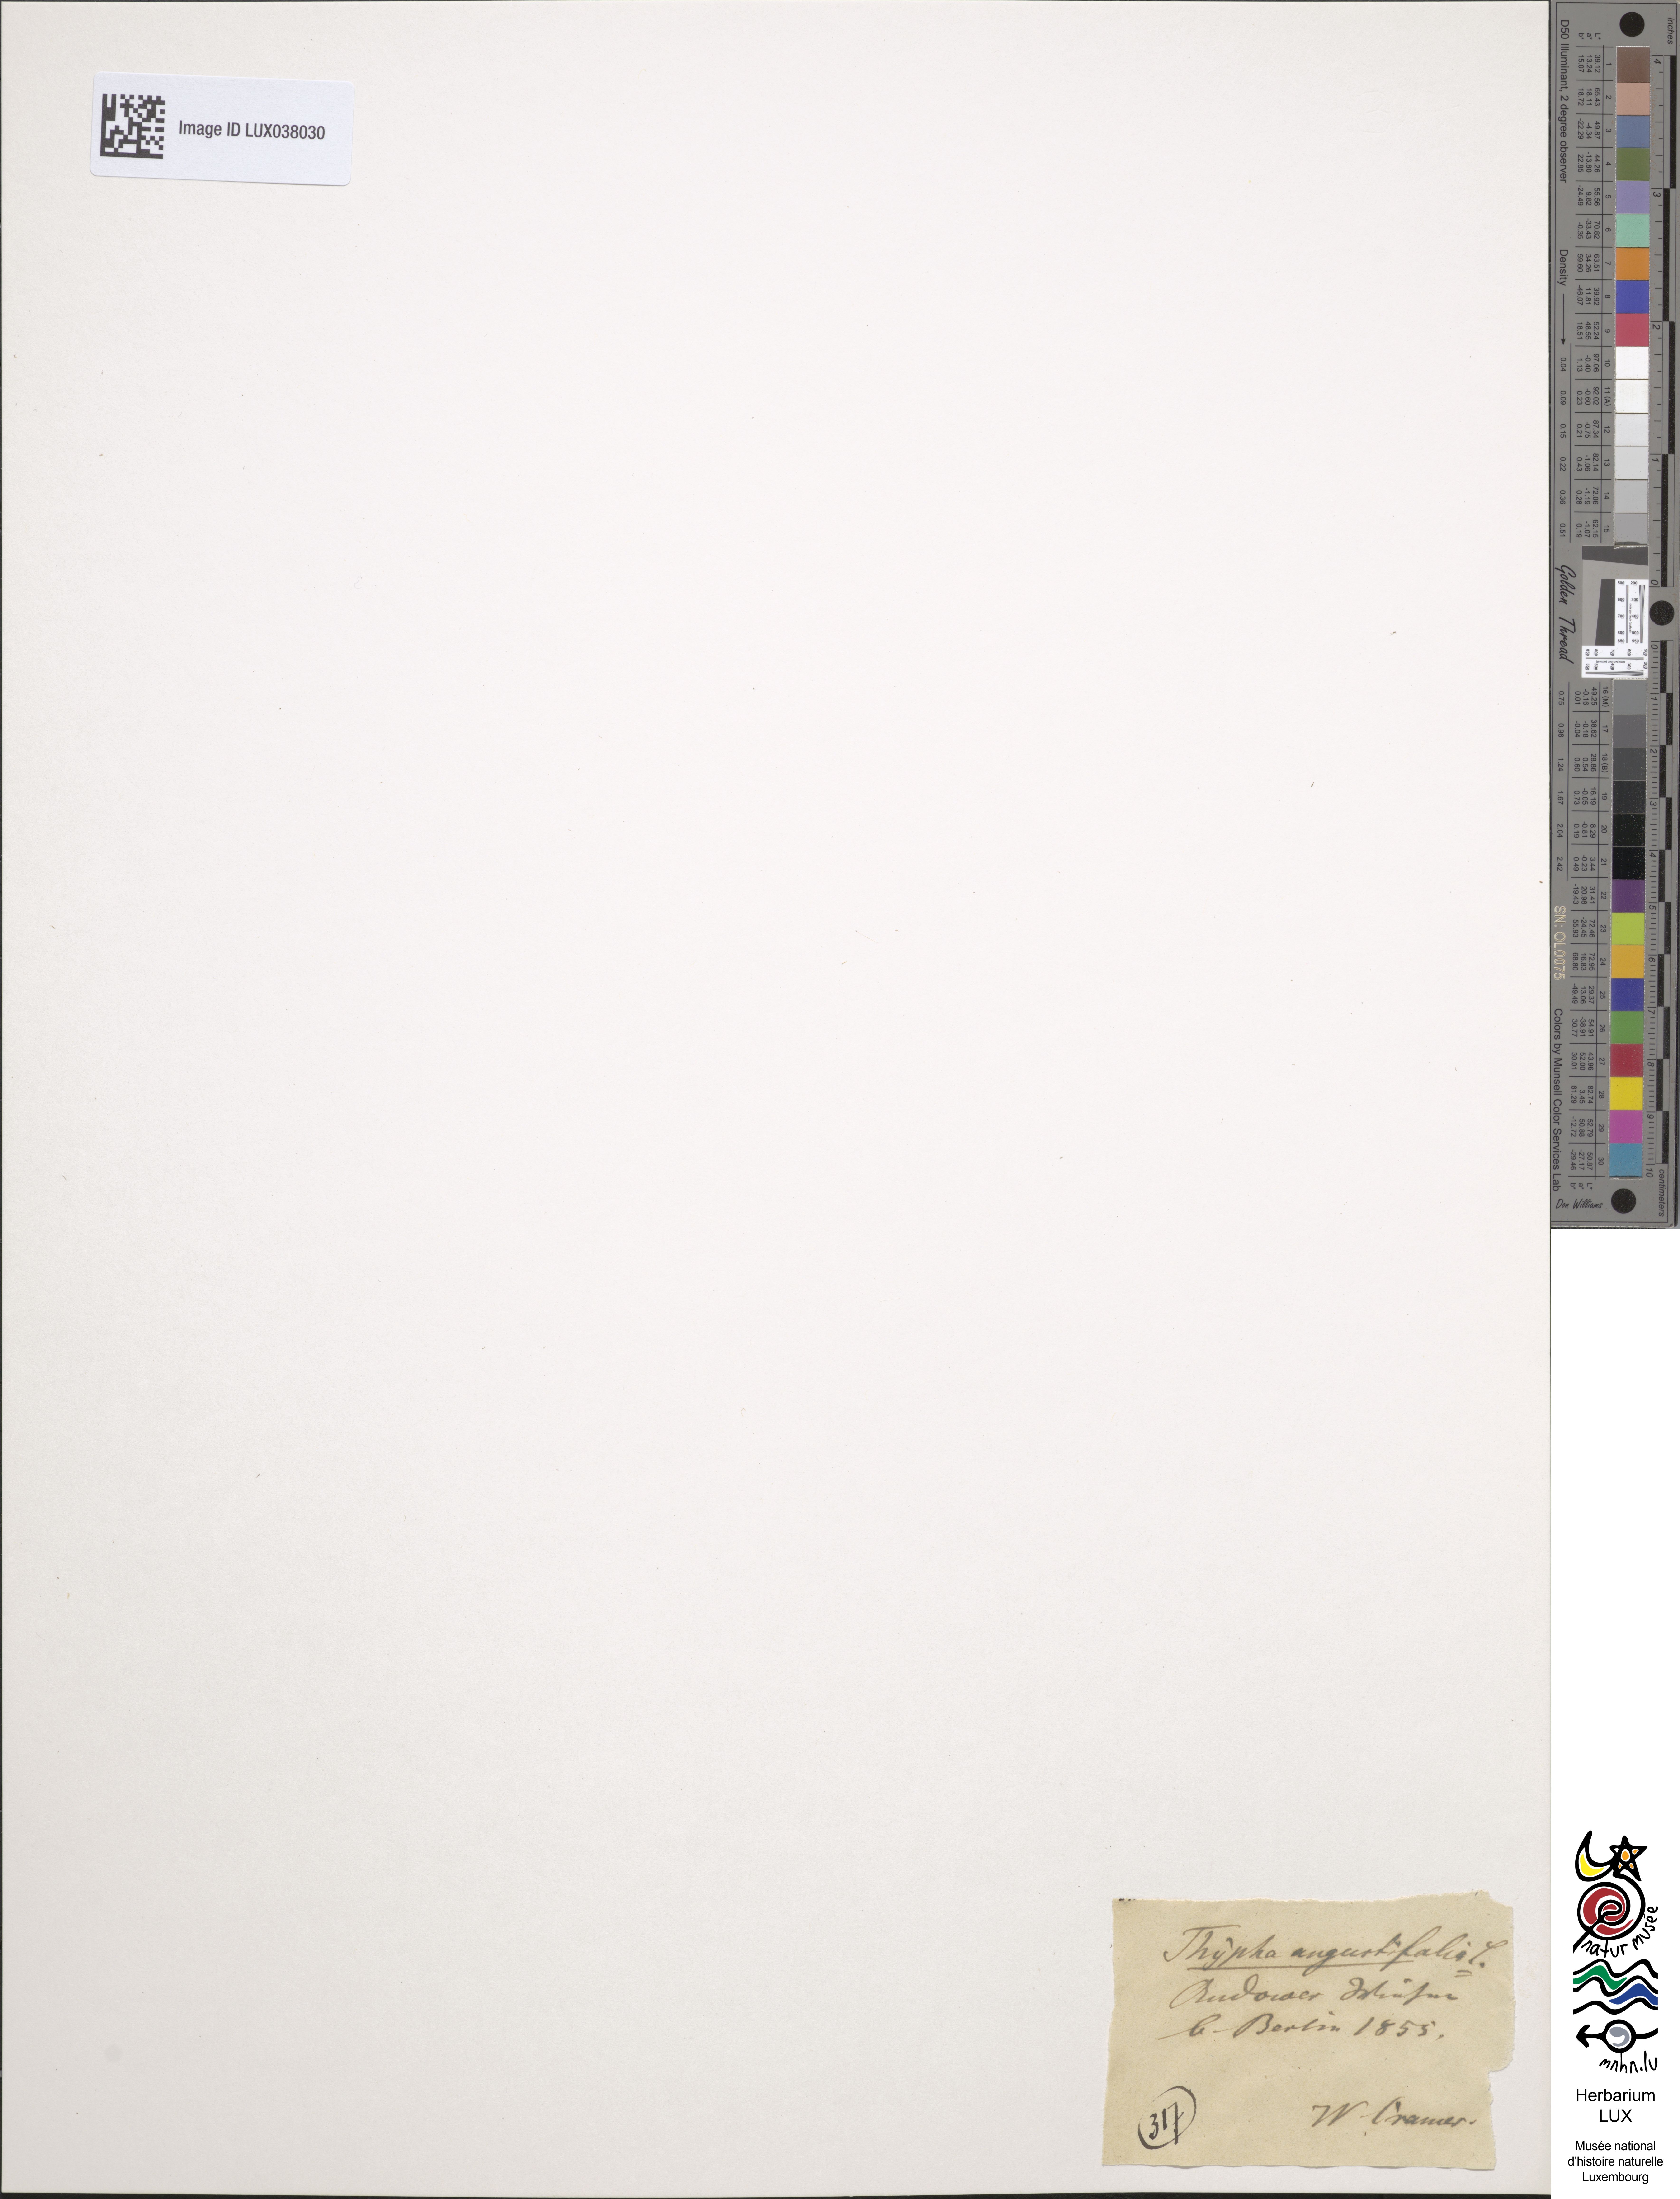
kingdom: Plantae
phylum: Tracheophyta
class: Liliopsida
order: Poales
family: Typhaceae
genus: Typha
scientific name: Typha angustifolia
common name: Lesser bulrush
